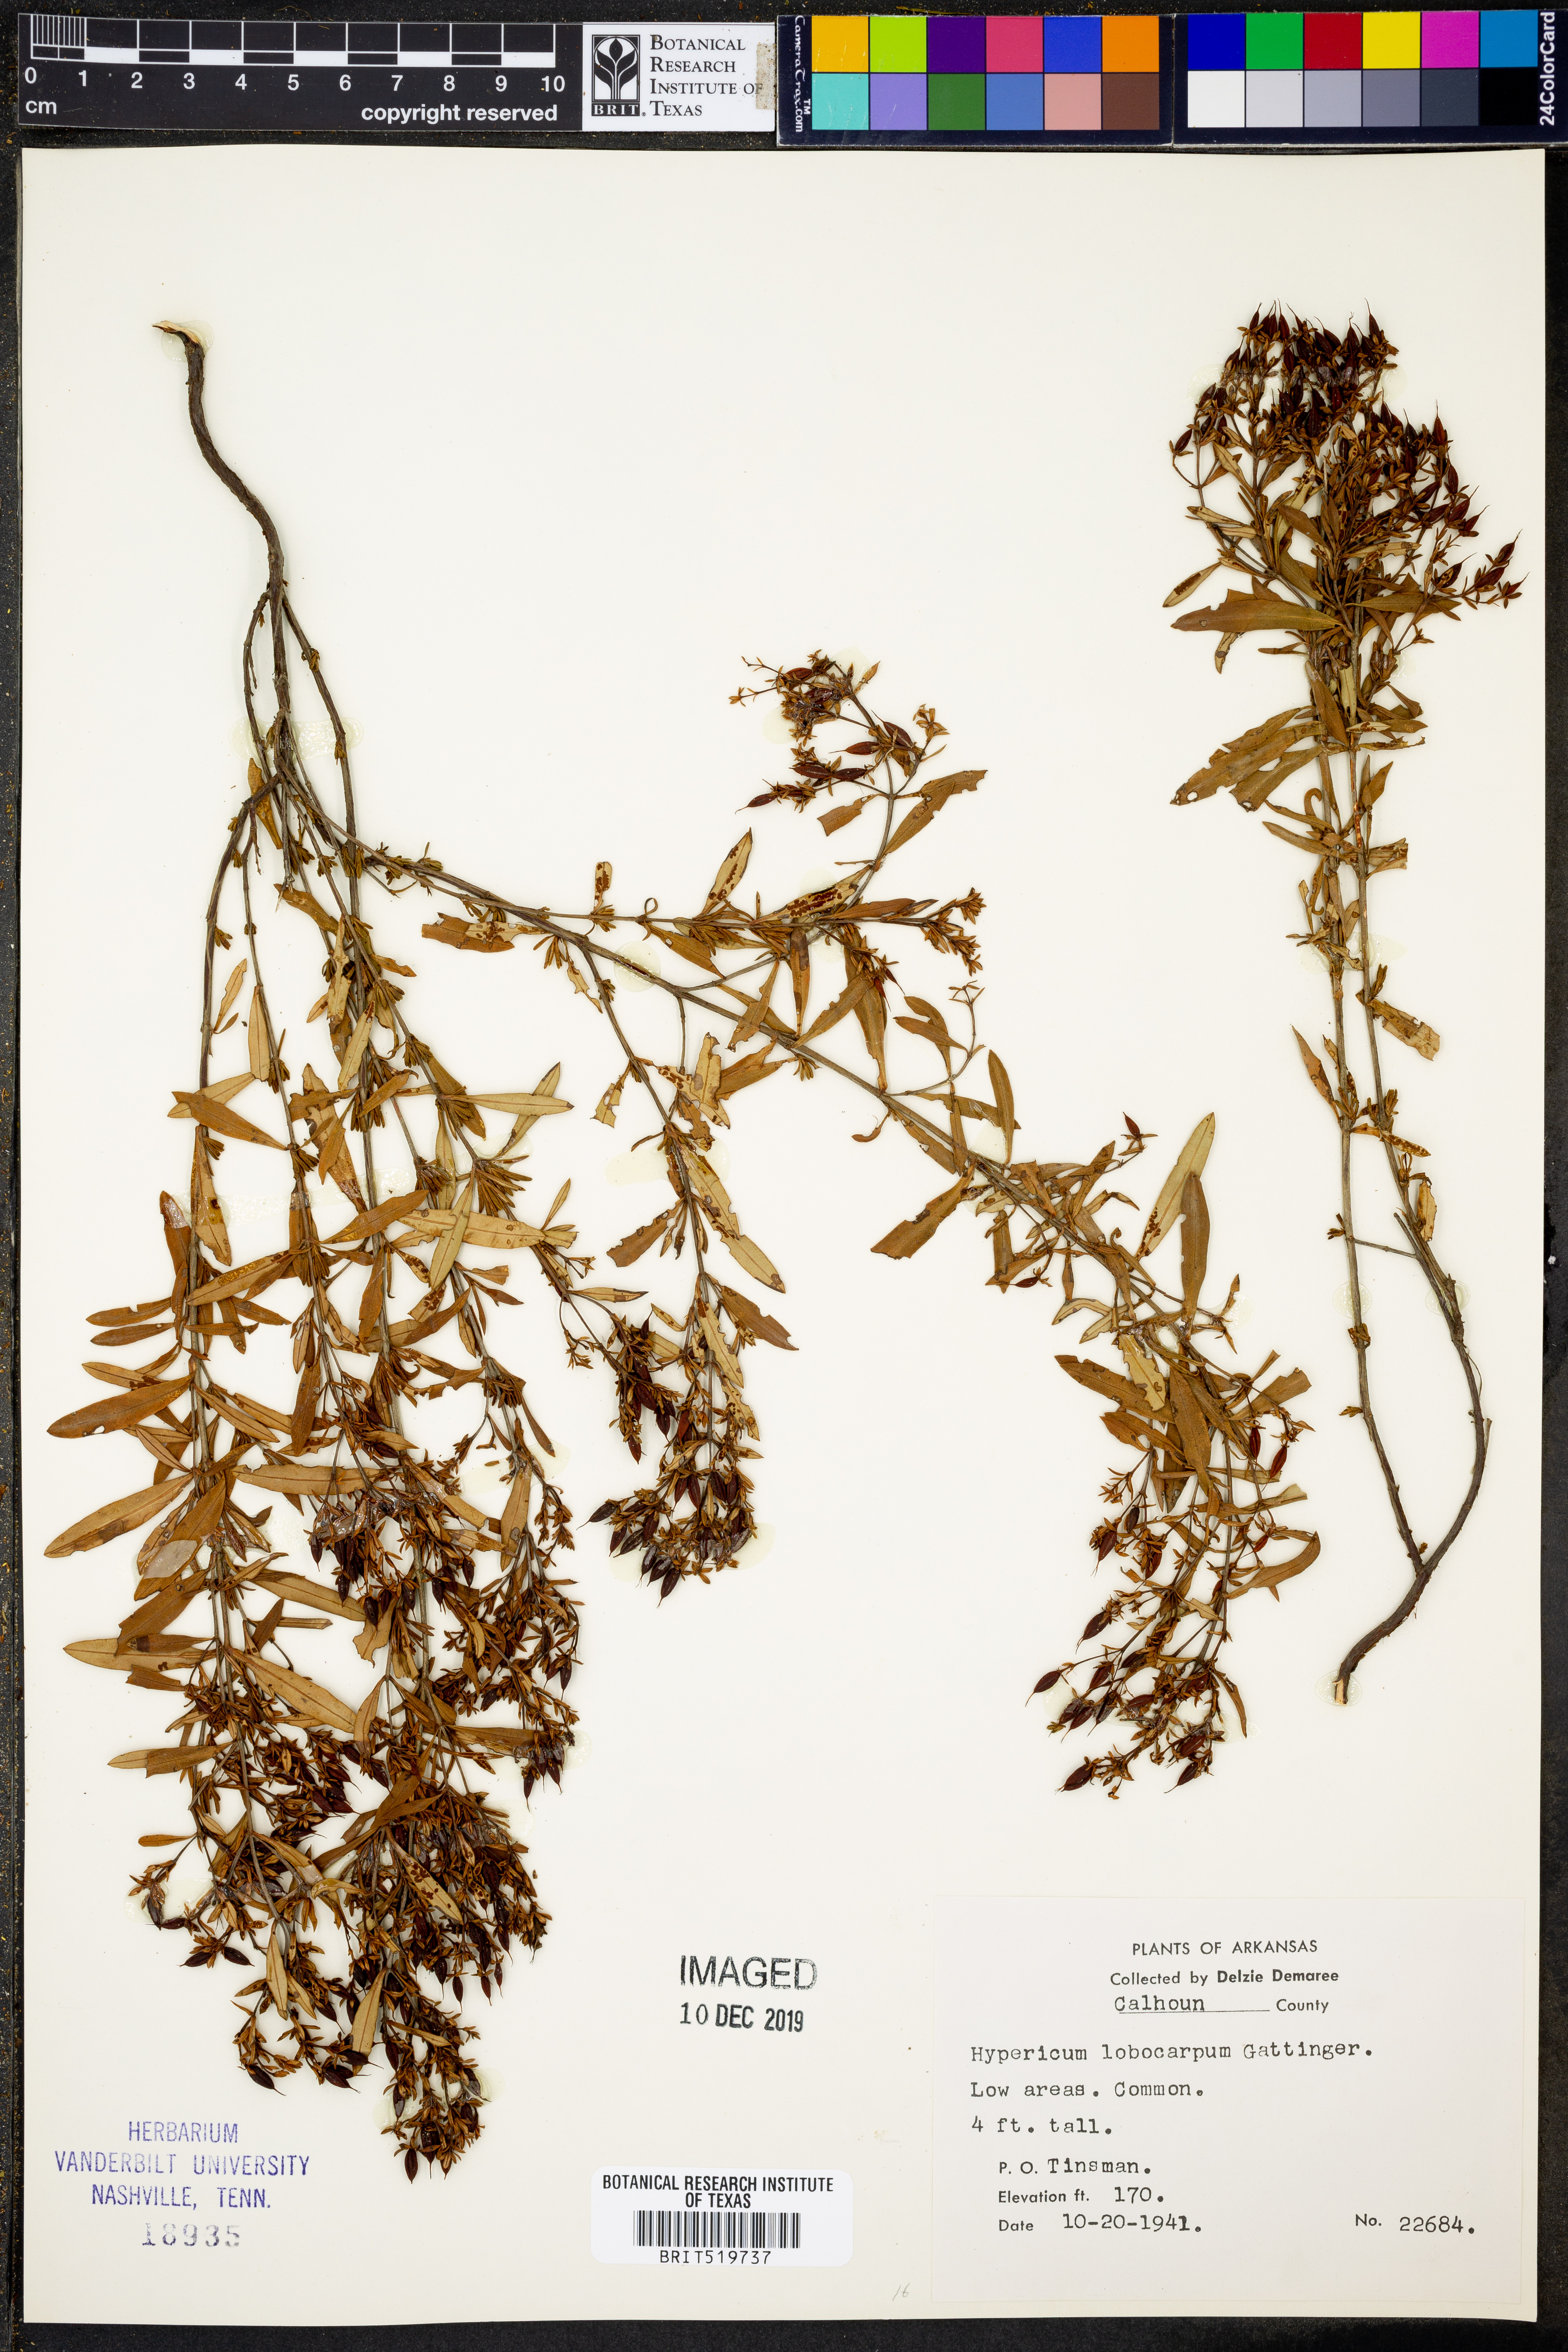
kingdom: Plantae
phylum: Tracheophyta
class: Magnoliopsida
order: Malpighiales
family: Hypericaceae
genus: Hypericum
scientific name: Hypericum lobocarpum
